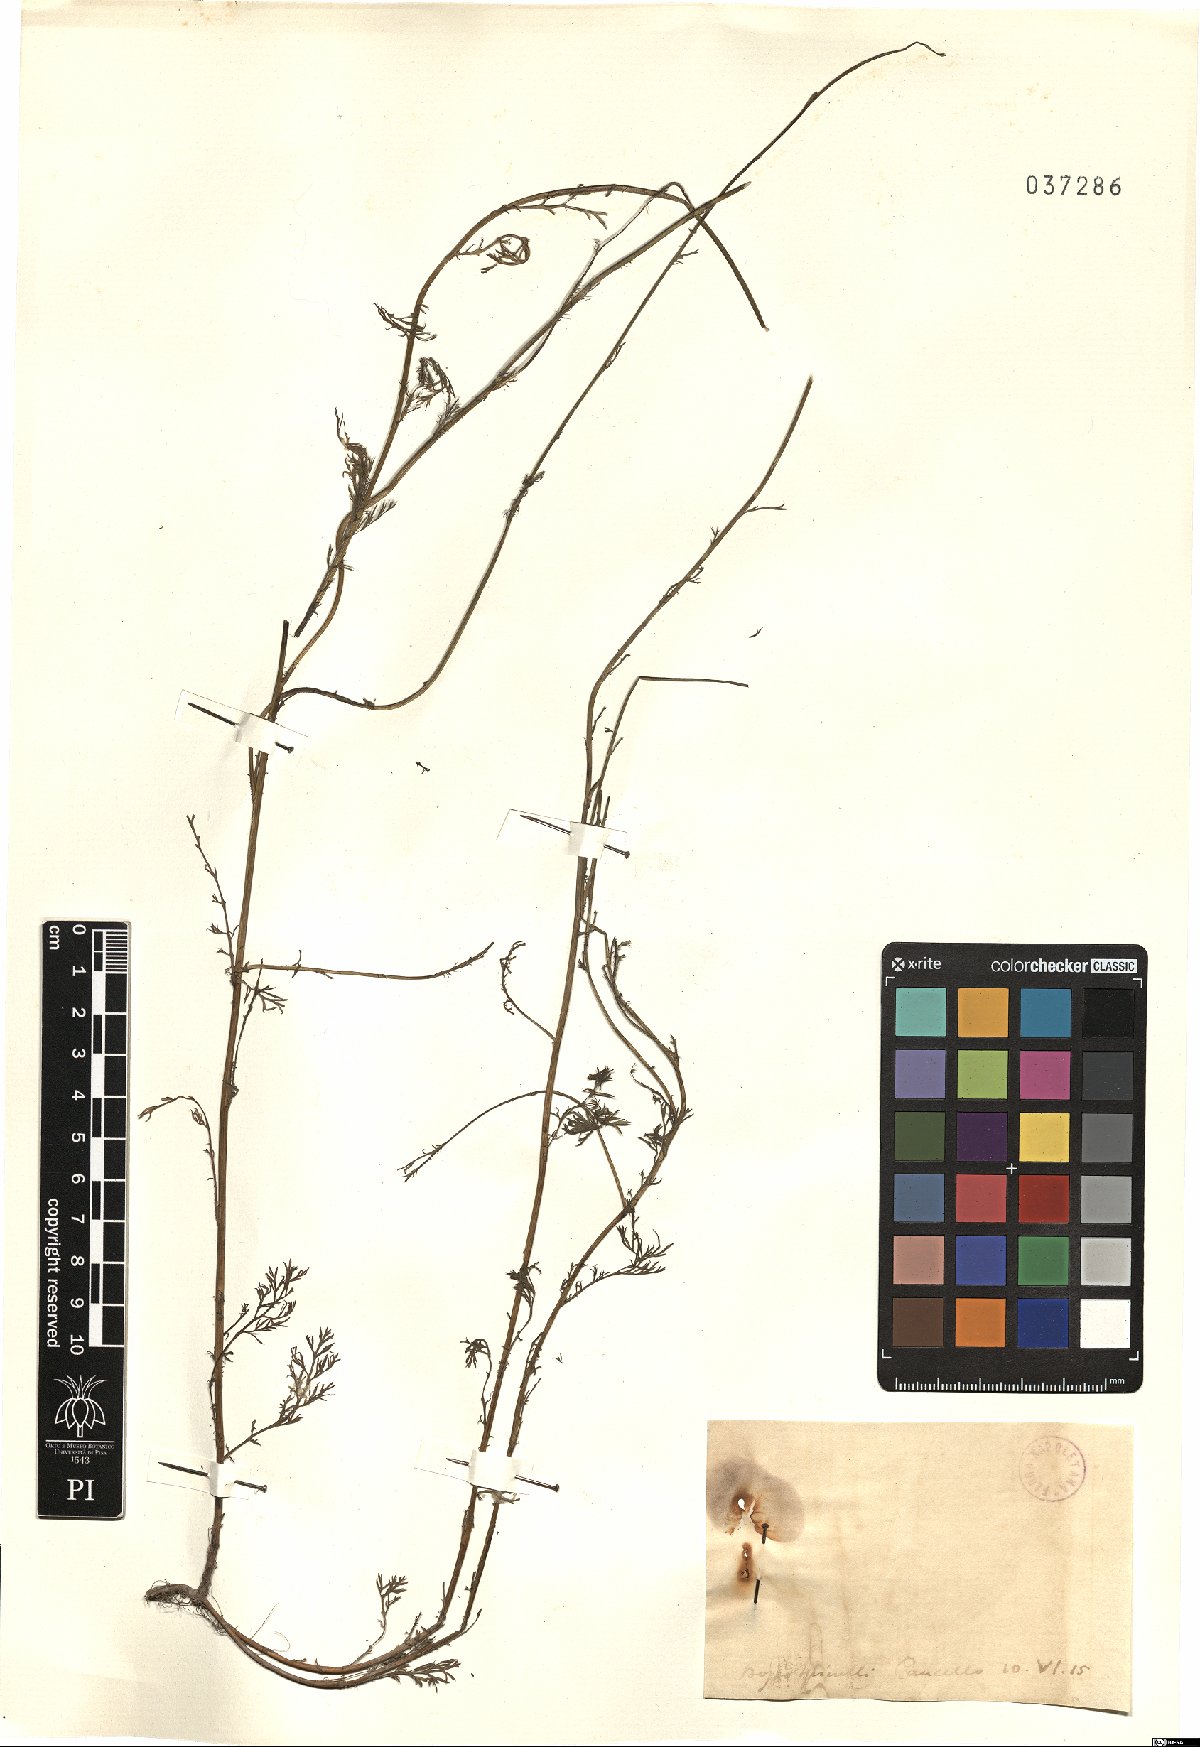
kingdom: Plantae
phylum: Tracheophyta
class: Magnoliopsida
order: Asterales
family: Asteraceae
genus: Anthemis
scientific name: Anthemis
